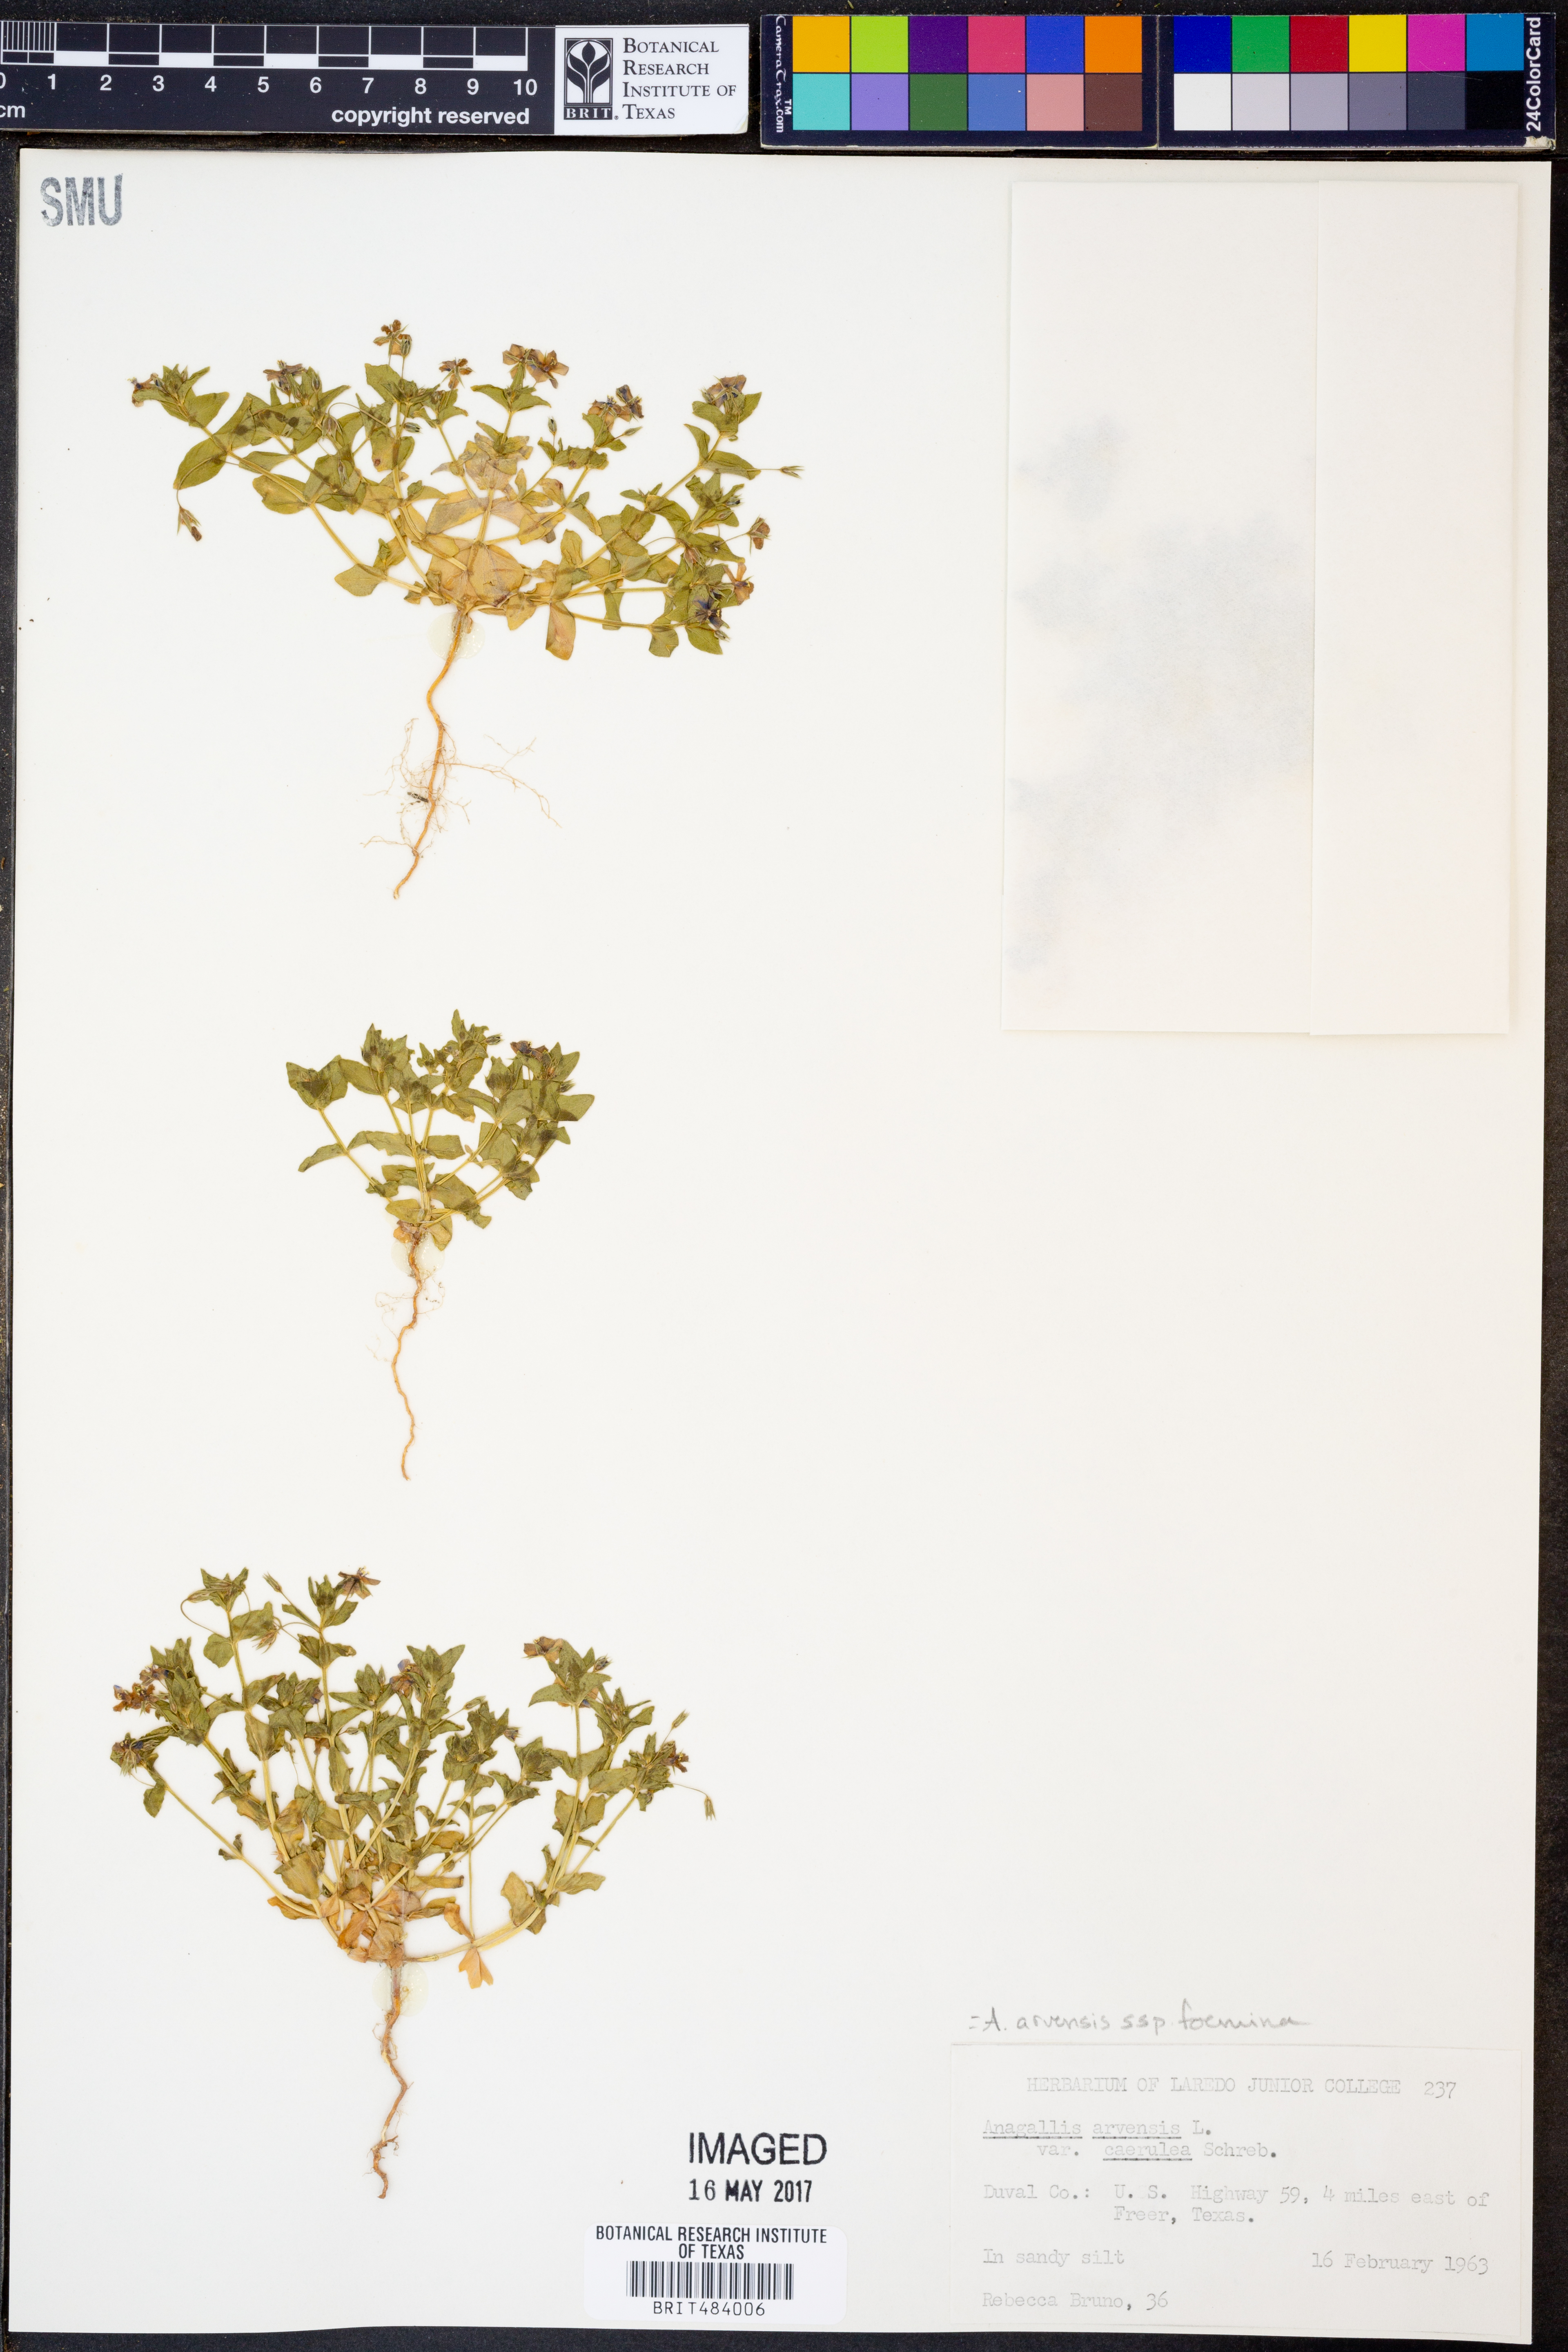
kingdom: Plantae
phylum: Tracheophyta
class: Magnoliopsida
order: Ericales
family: Primulaceae
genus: Lysimachia
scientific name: Lysimachia arvensis
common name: Scarlet pimpernel
